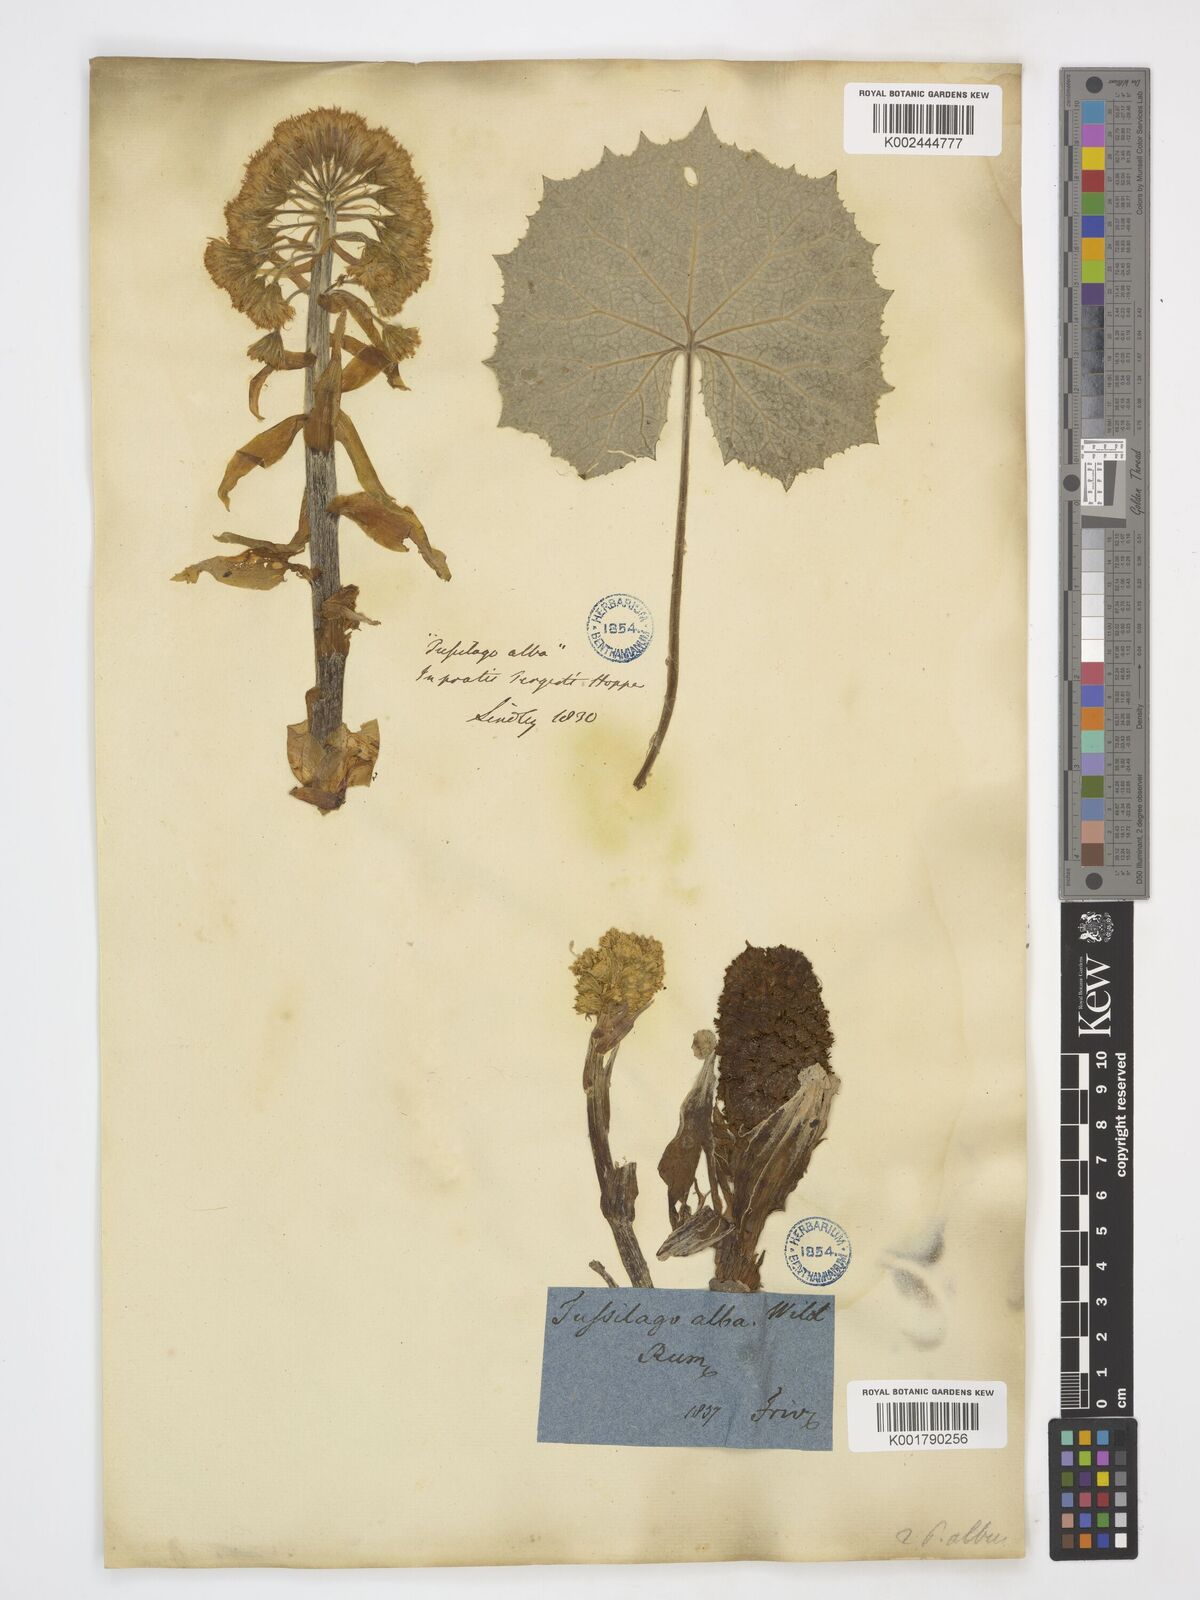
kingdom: Plantae
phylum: Tracheophyta
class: Magnoliopsida
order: Asterales
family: Asteraceae
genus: Petasites
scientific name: Petasites albus
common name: White butterbur
